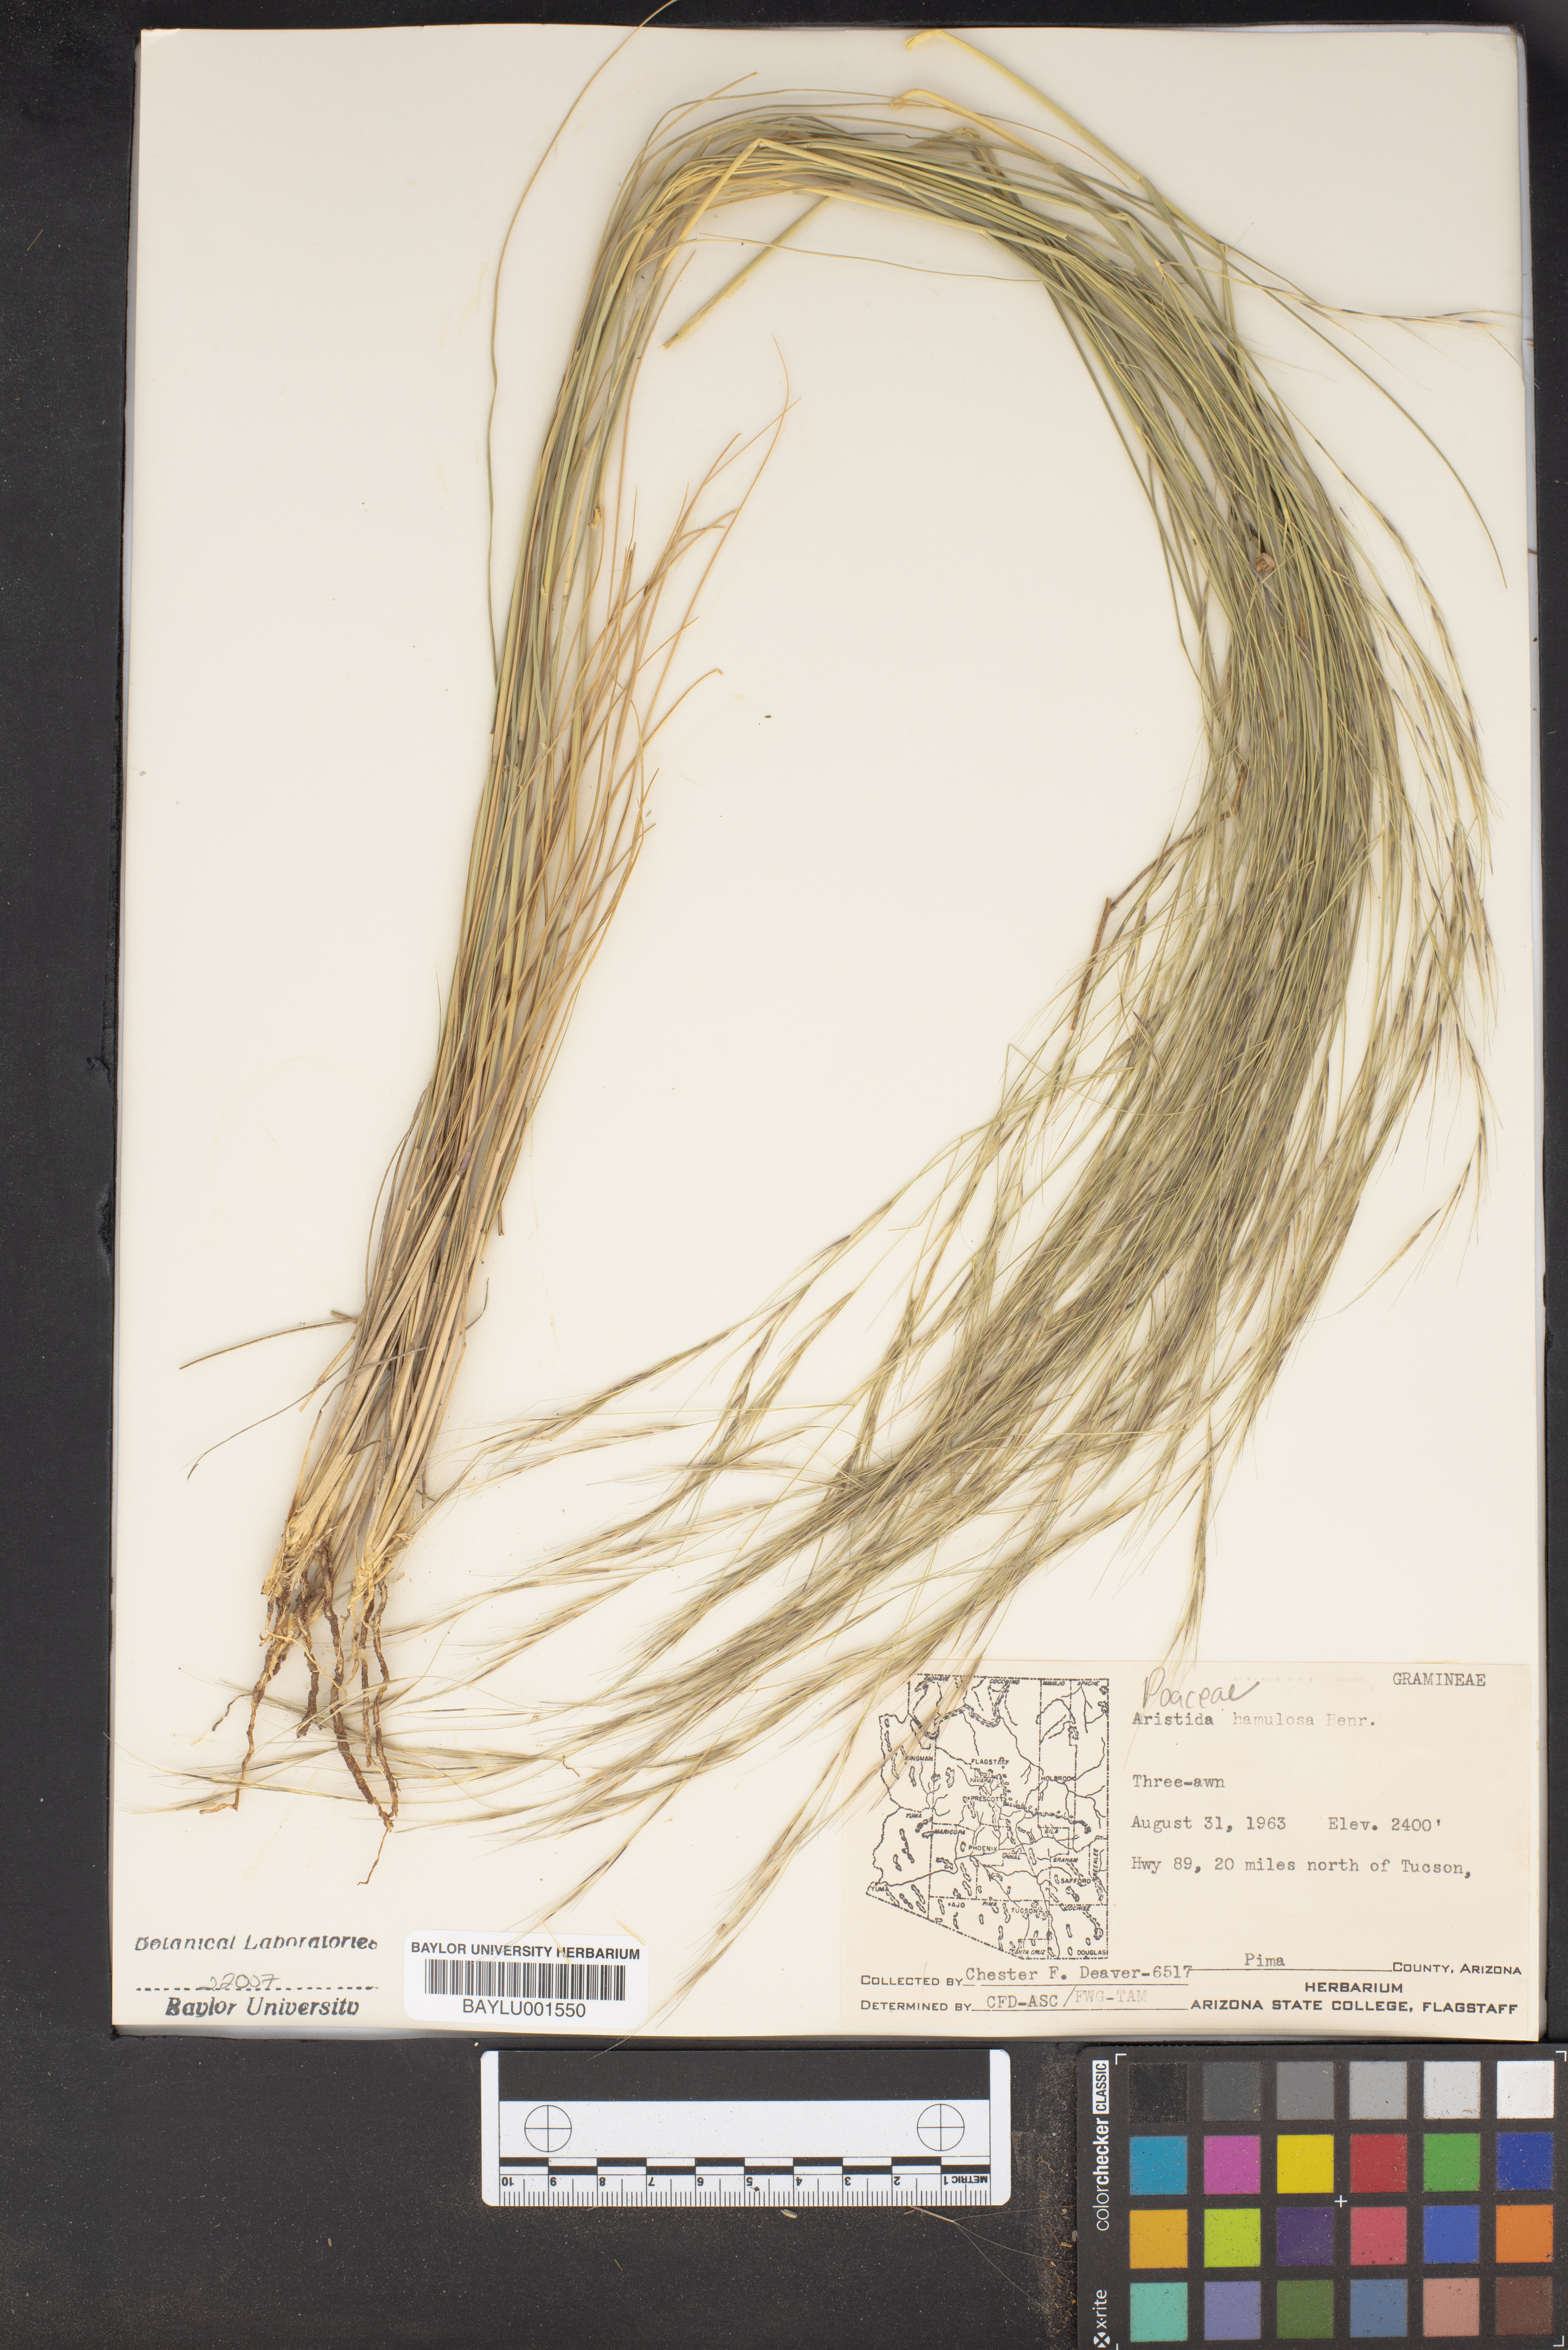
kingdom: Plantae
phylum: Tracheophyta
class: Liliopsida
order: Poales
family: Poaceae
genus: Aristida
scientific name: Aristida hamulosa
